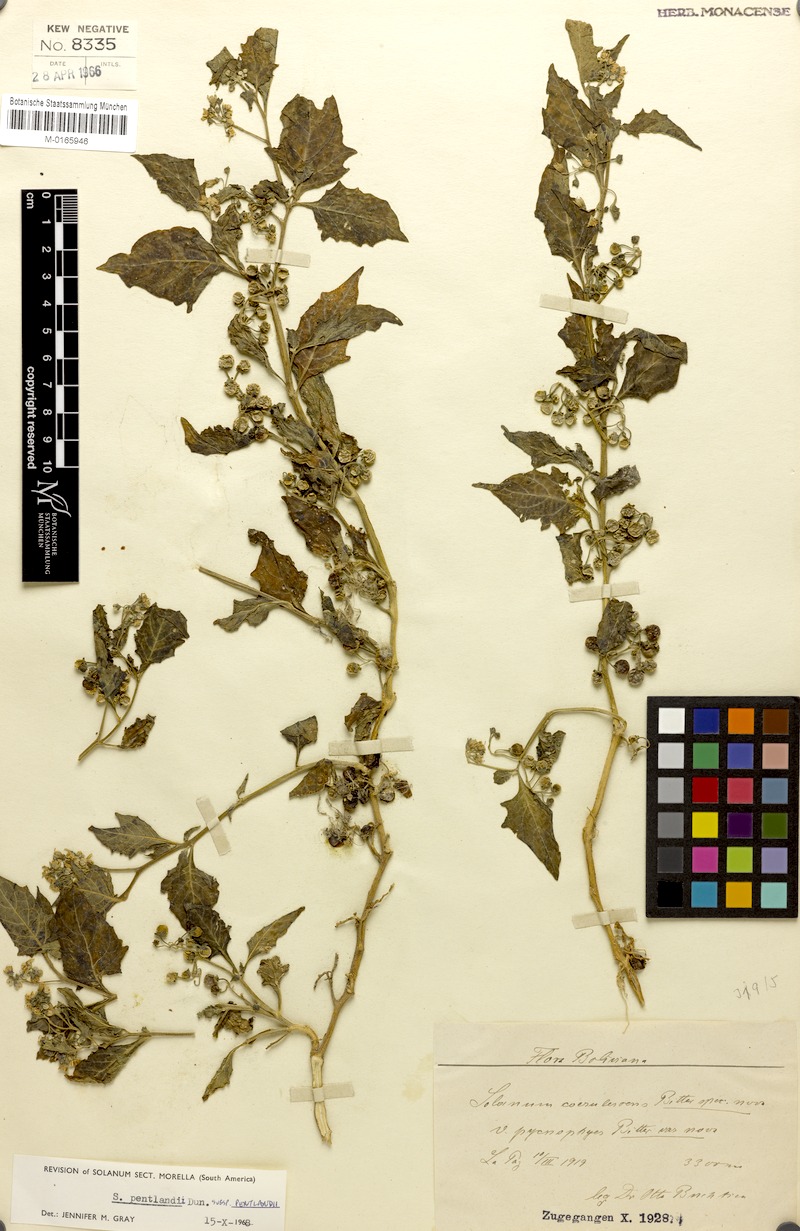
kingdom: Plantae
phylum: Tracheophyta
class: Magnoliopsida
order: Solanales
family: Solanaceae
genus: Solanum
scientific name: Solanum pentlandii
